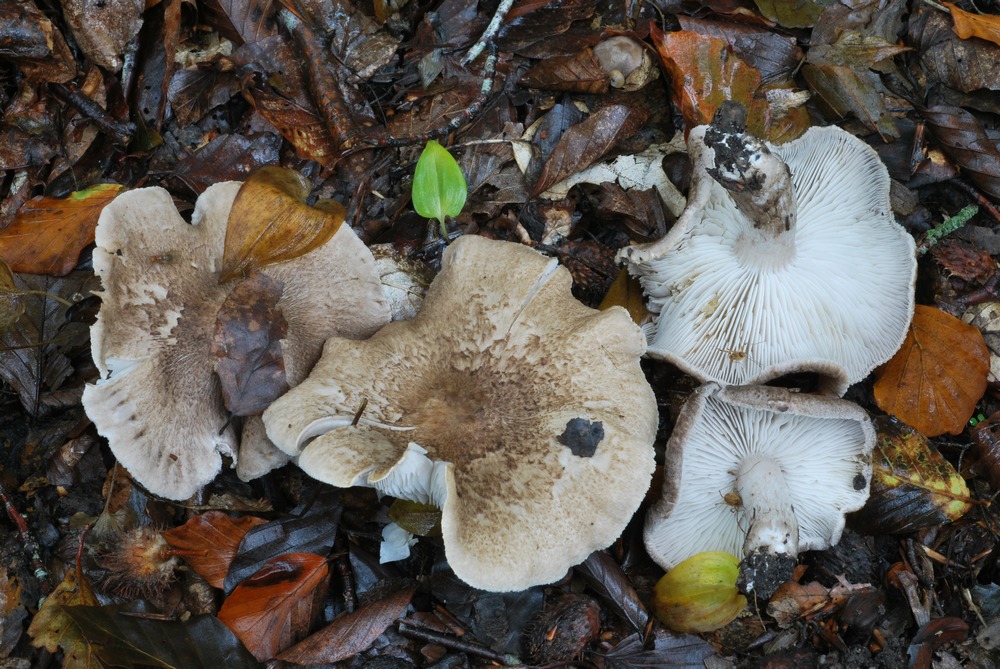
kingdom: Fungi
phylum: Basidiomycota
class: Agaricomycetes
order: Agaricales
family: Tricholomataceae
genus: Tricholoma
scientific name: Tricholoma scalpturatum
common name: gulplettet ridderhat
